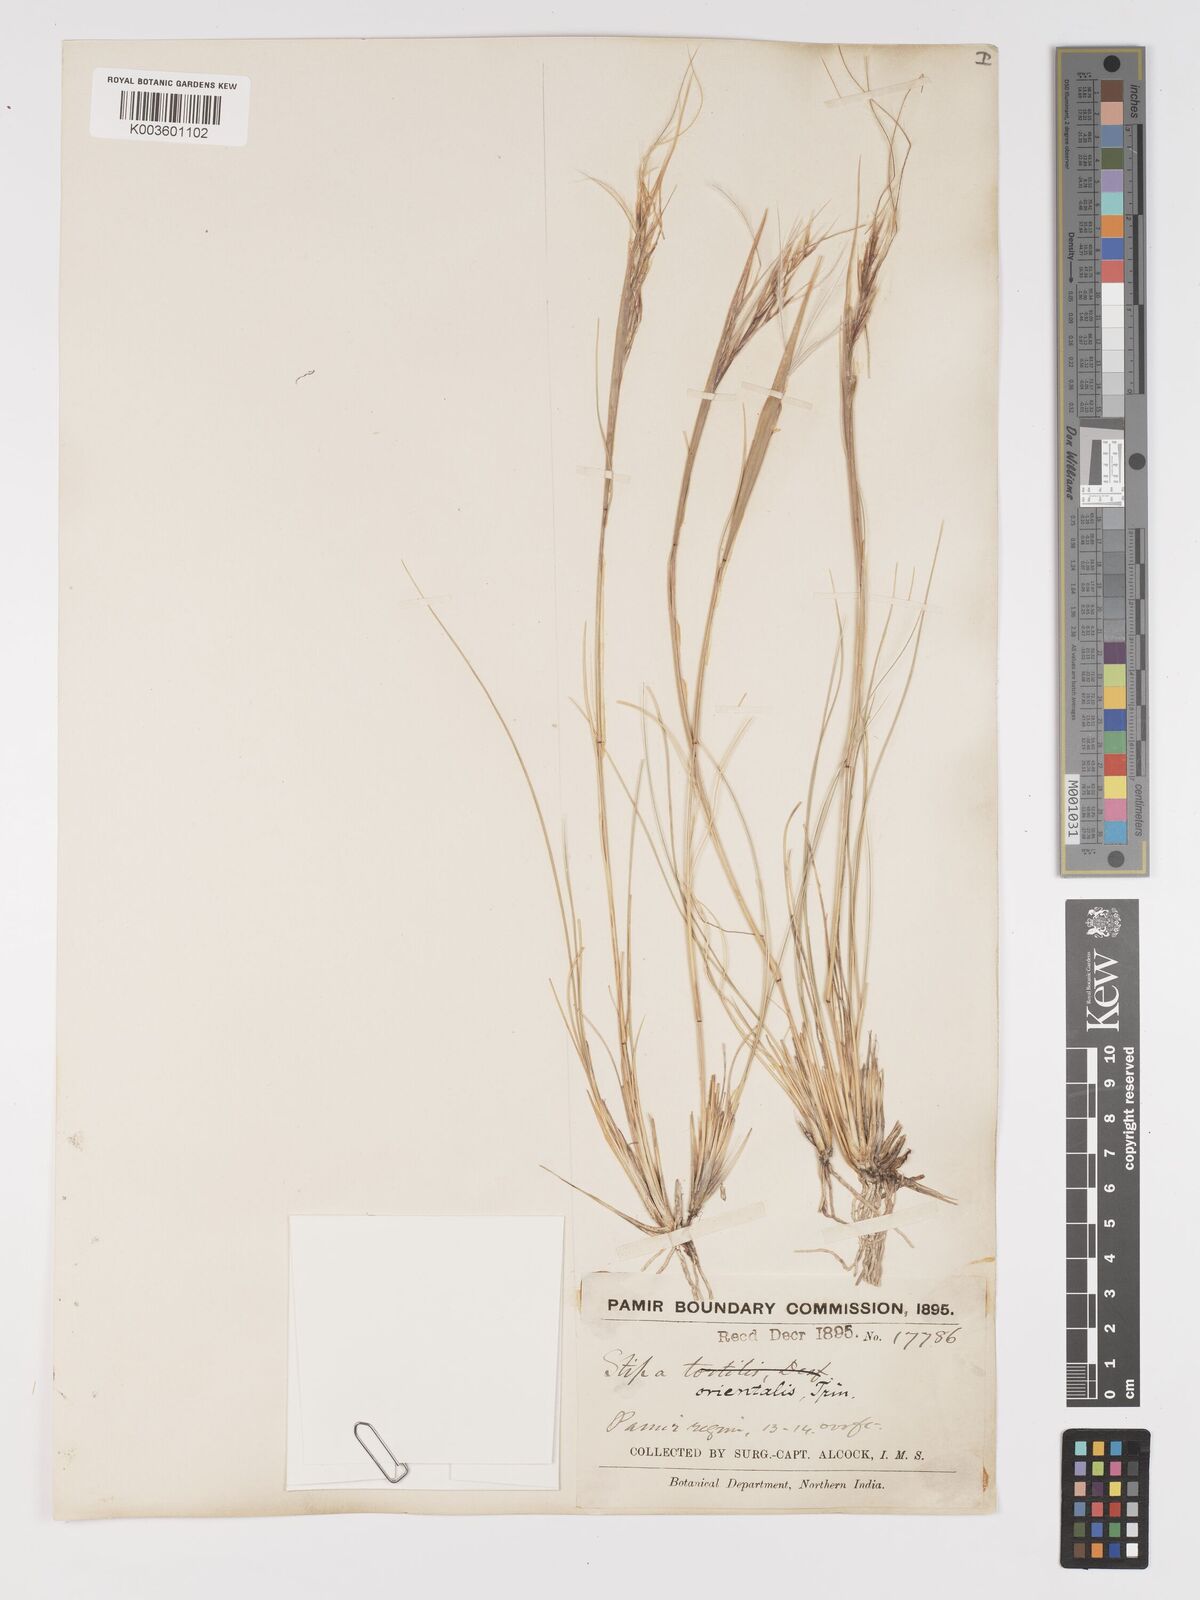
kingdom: Plantae
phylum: Tracheophyta
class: Liliopsida
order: Poales
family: Poaceae
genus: Stipa
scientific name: Stipa orientalis
